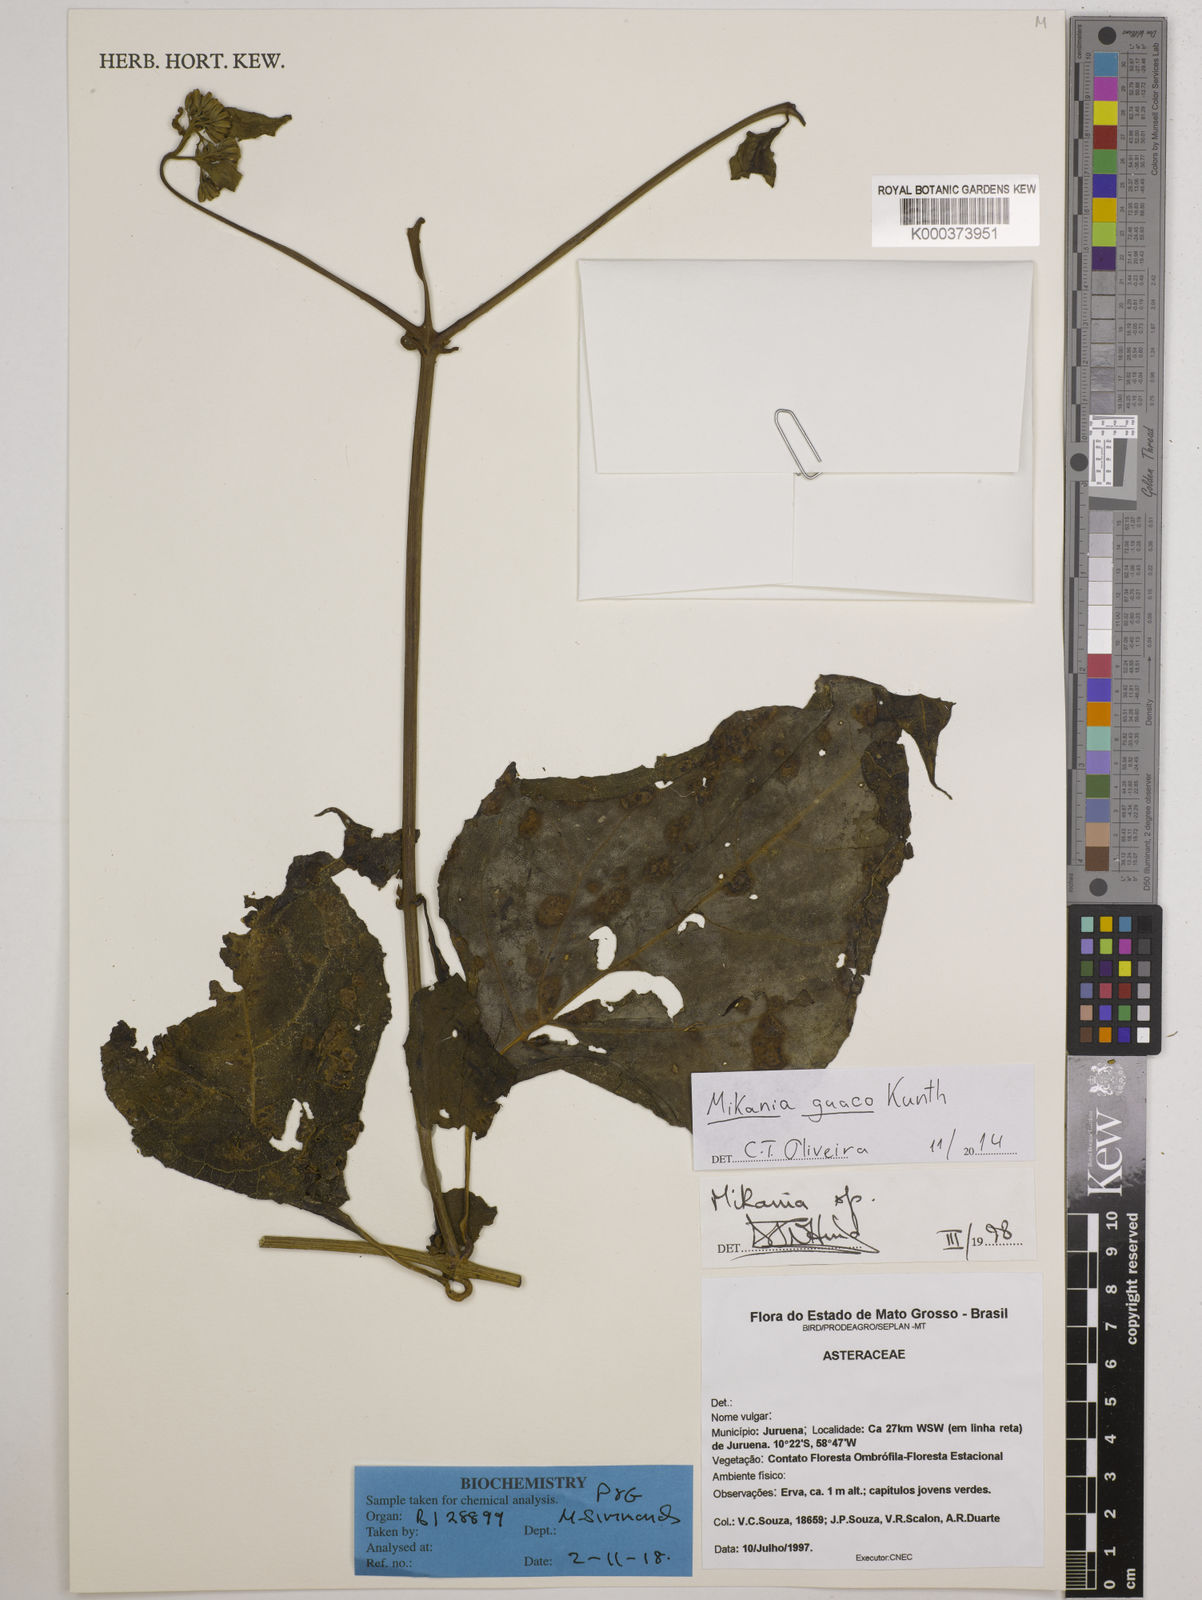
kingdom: Plantae
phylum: Tracheophyta
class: Magnoliopsida
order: Asterales
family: Asteraceae
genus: Mikania
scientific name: Mikania guaco
